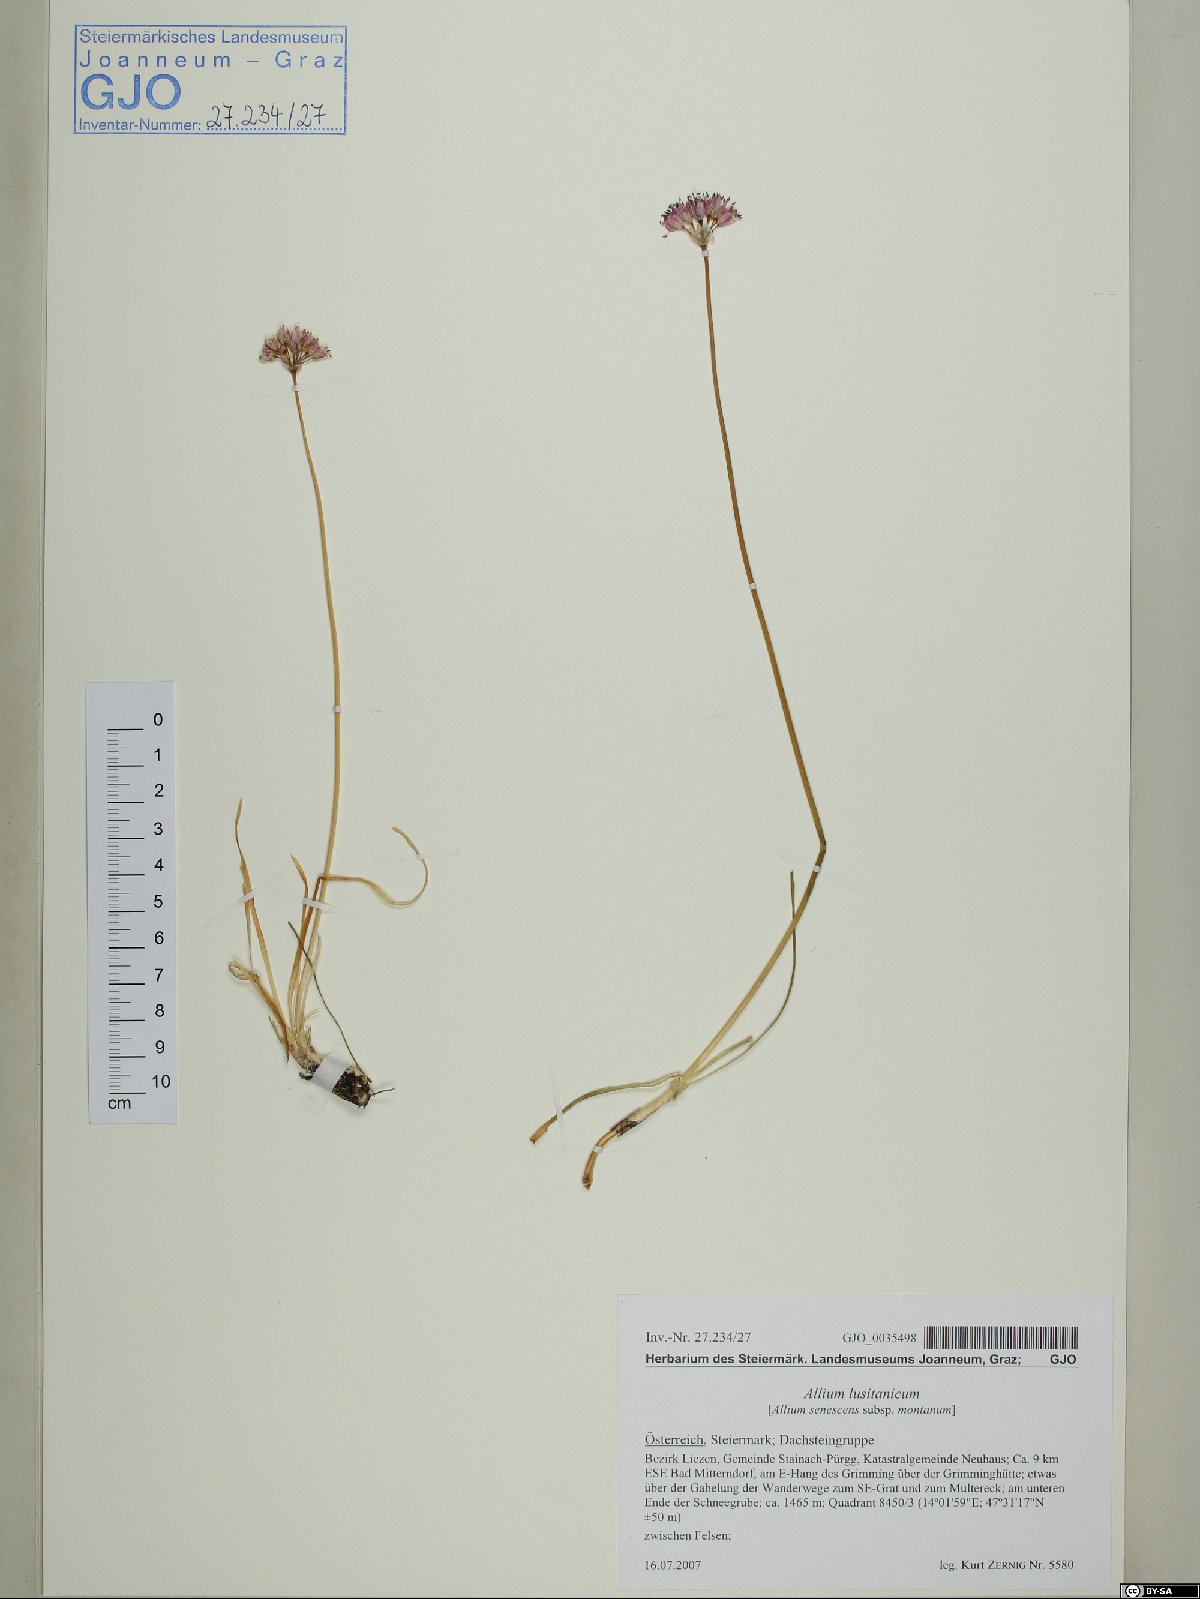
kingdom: Plantae
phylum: Tracheophyta
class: Liliopsida
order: Asparagales
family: Amaryllidaceae
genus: Allium
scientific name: Allium lusitanicum
